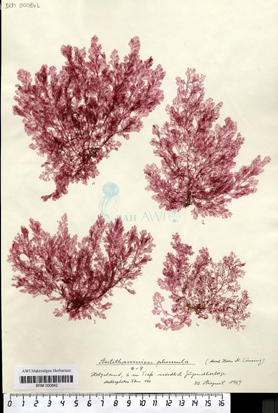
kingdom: Plantae
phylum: Rhodophyta
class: Florideophyceae
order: Ceramiales
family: Ceramiaceae
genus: Pterothamnion
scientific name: Pterothamnion plumula
